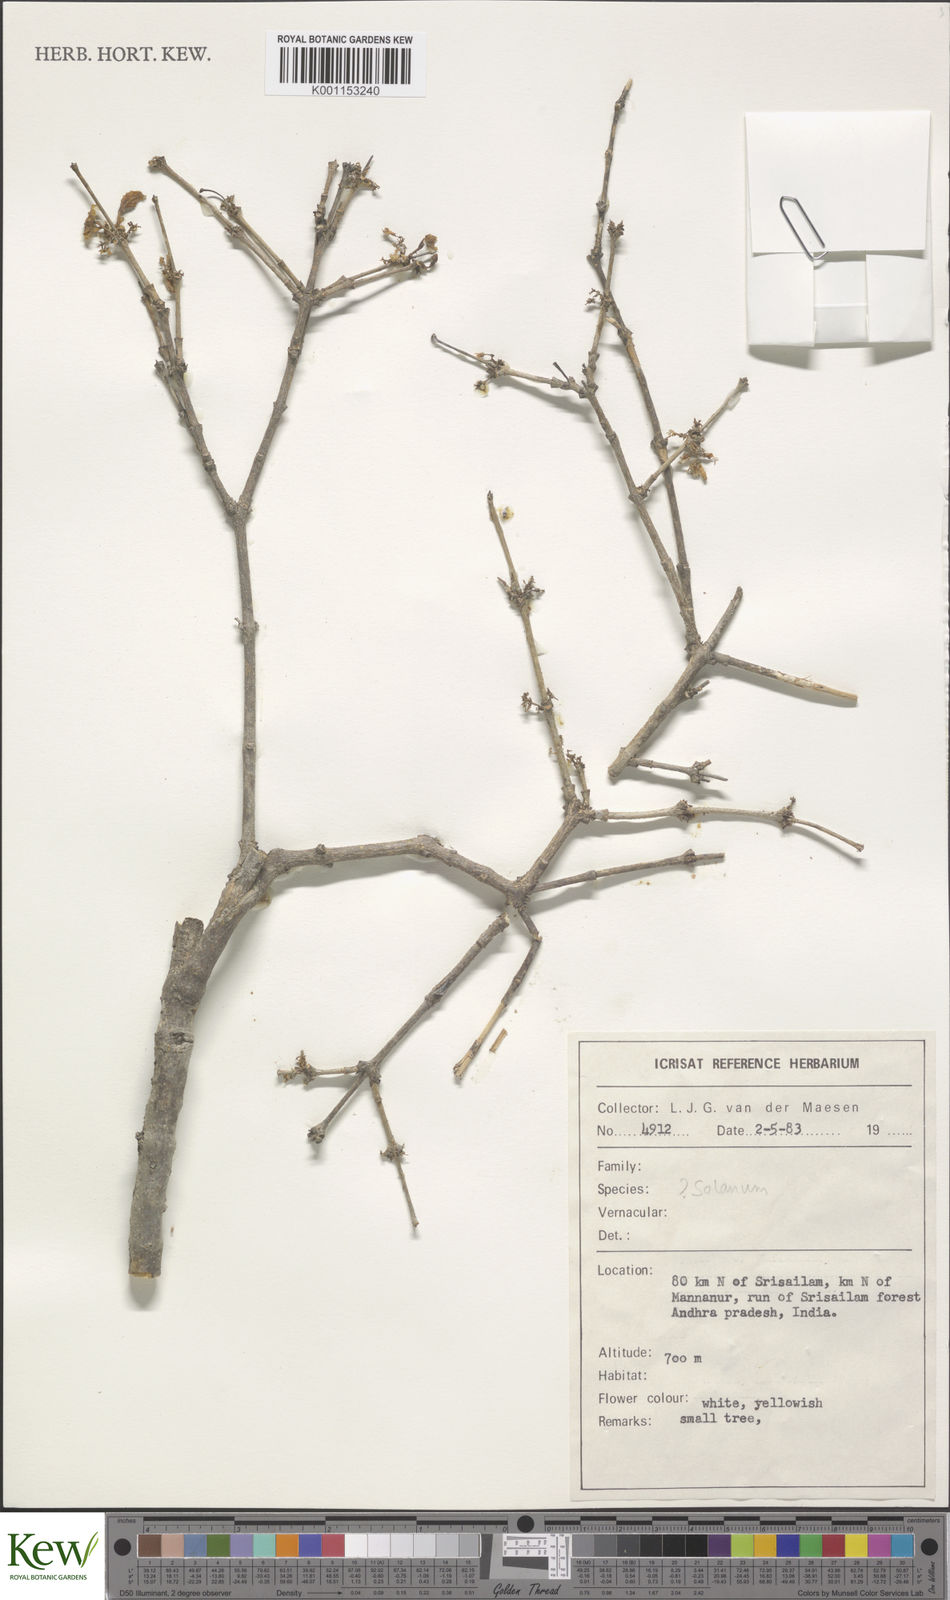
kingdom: Plantae
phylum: Tracheophyta
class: Magnoliopsida
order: Solanales
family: Solanaceae
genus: Solanum
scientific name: Solanum
